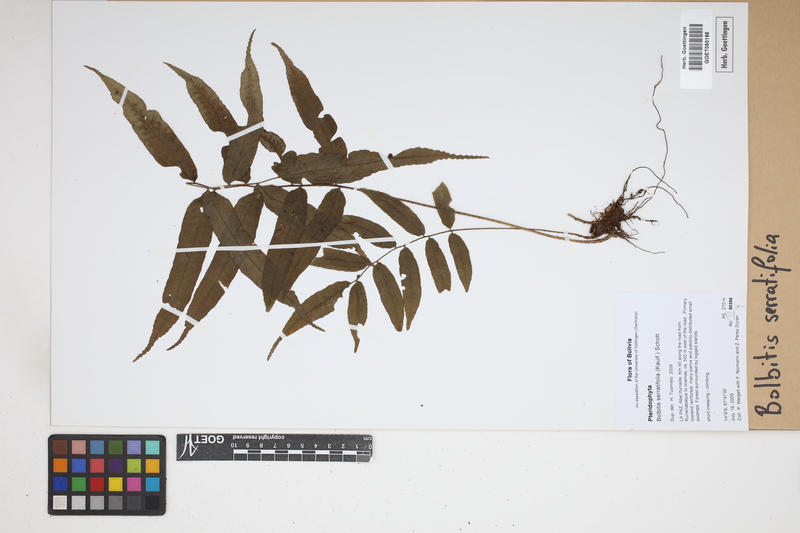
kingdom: Plantae
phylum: Tracheophyta
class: Polypodiopsida
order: Polypodiales
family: Dryopteridaceae
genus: Bolbitis
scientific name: Bolbitis serratifolia
